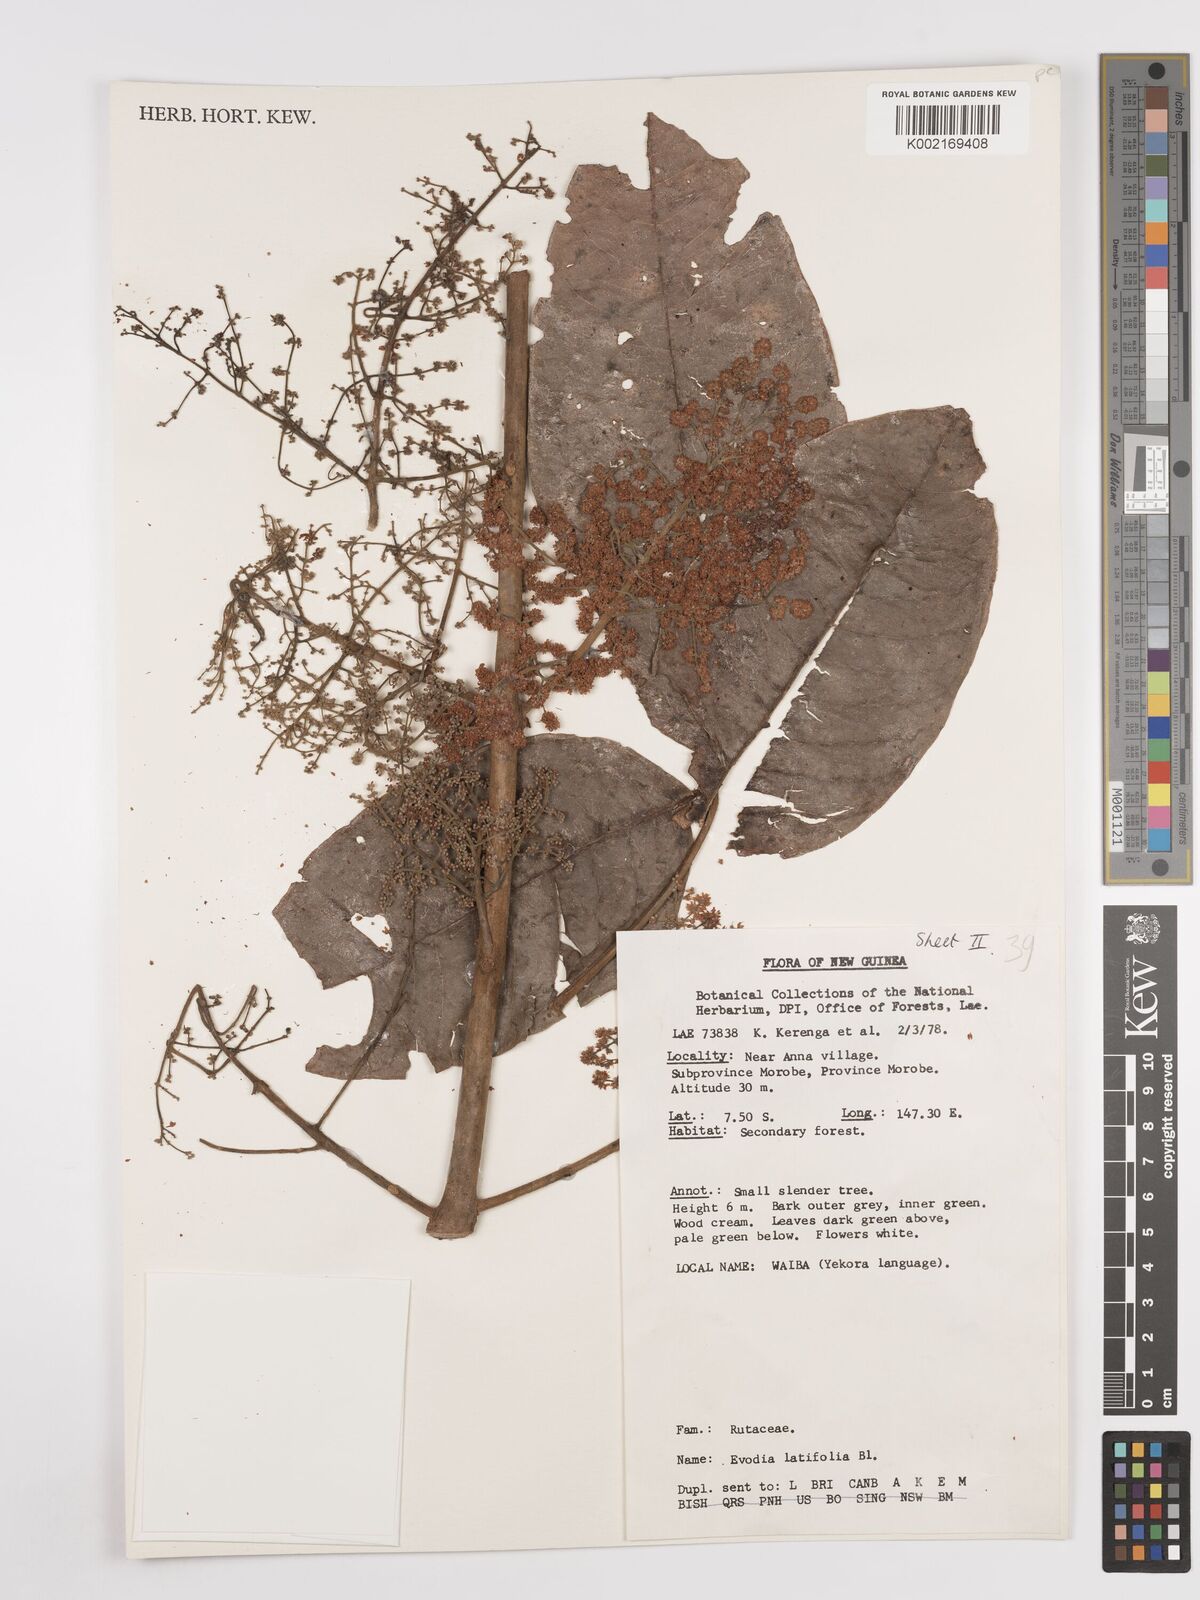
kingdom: Plantae
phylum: Tracheophyta
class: Magnoliopsida
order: Sapindales
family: Rutaceae
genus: Melicope
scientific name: Melicope latifolia
